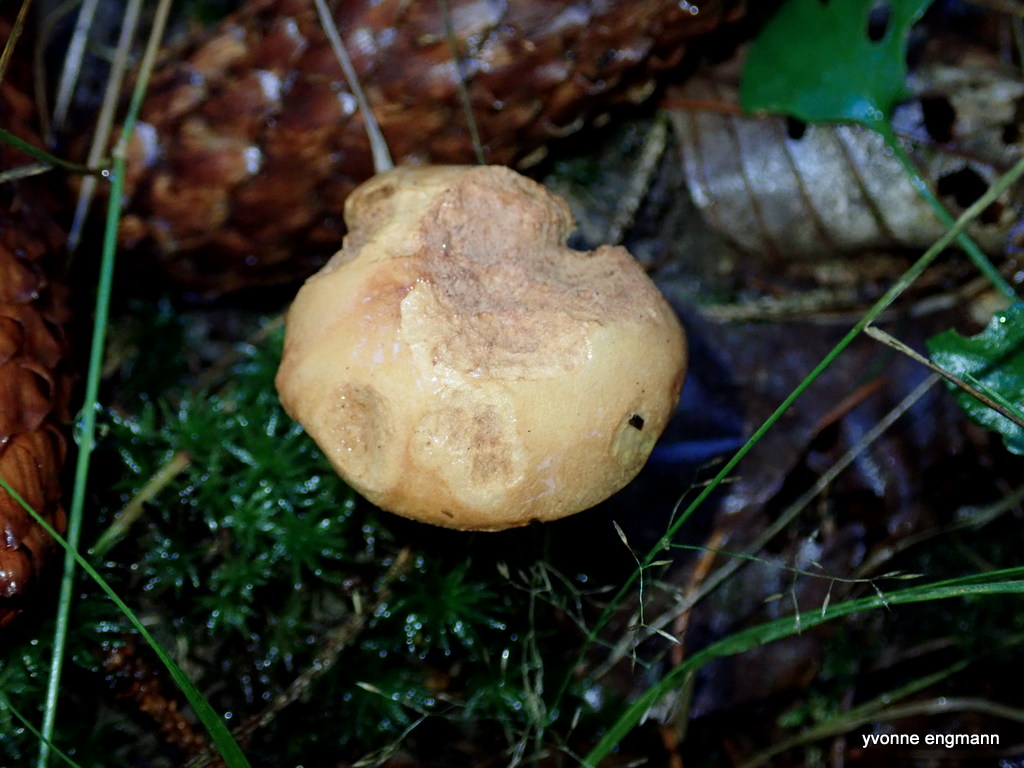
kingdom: Fungi
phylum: Basidiomycota
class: Agaricomycetes
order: Boletales
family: Boletaceae
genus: Chalciporus
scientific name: Chalciporus piperatus
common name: peberrørhat
